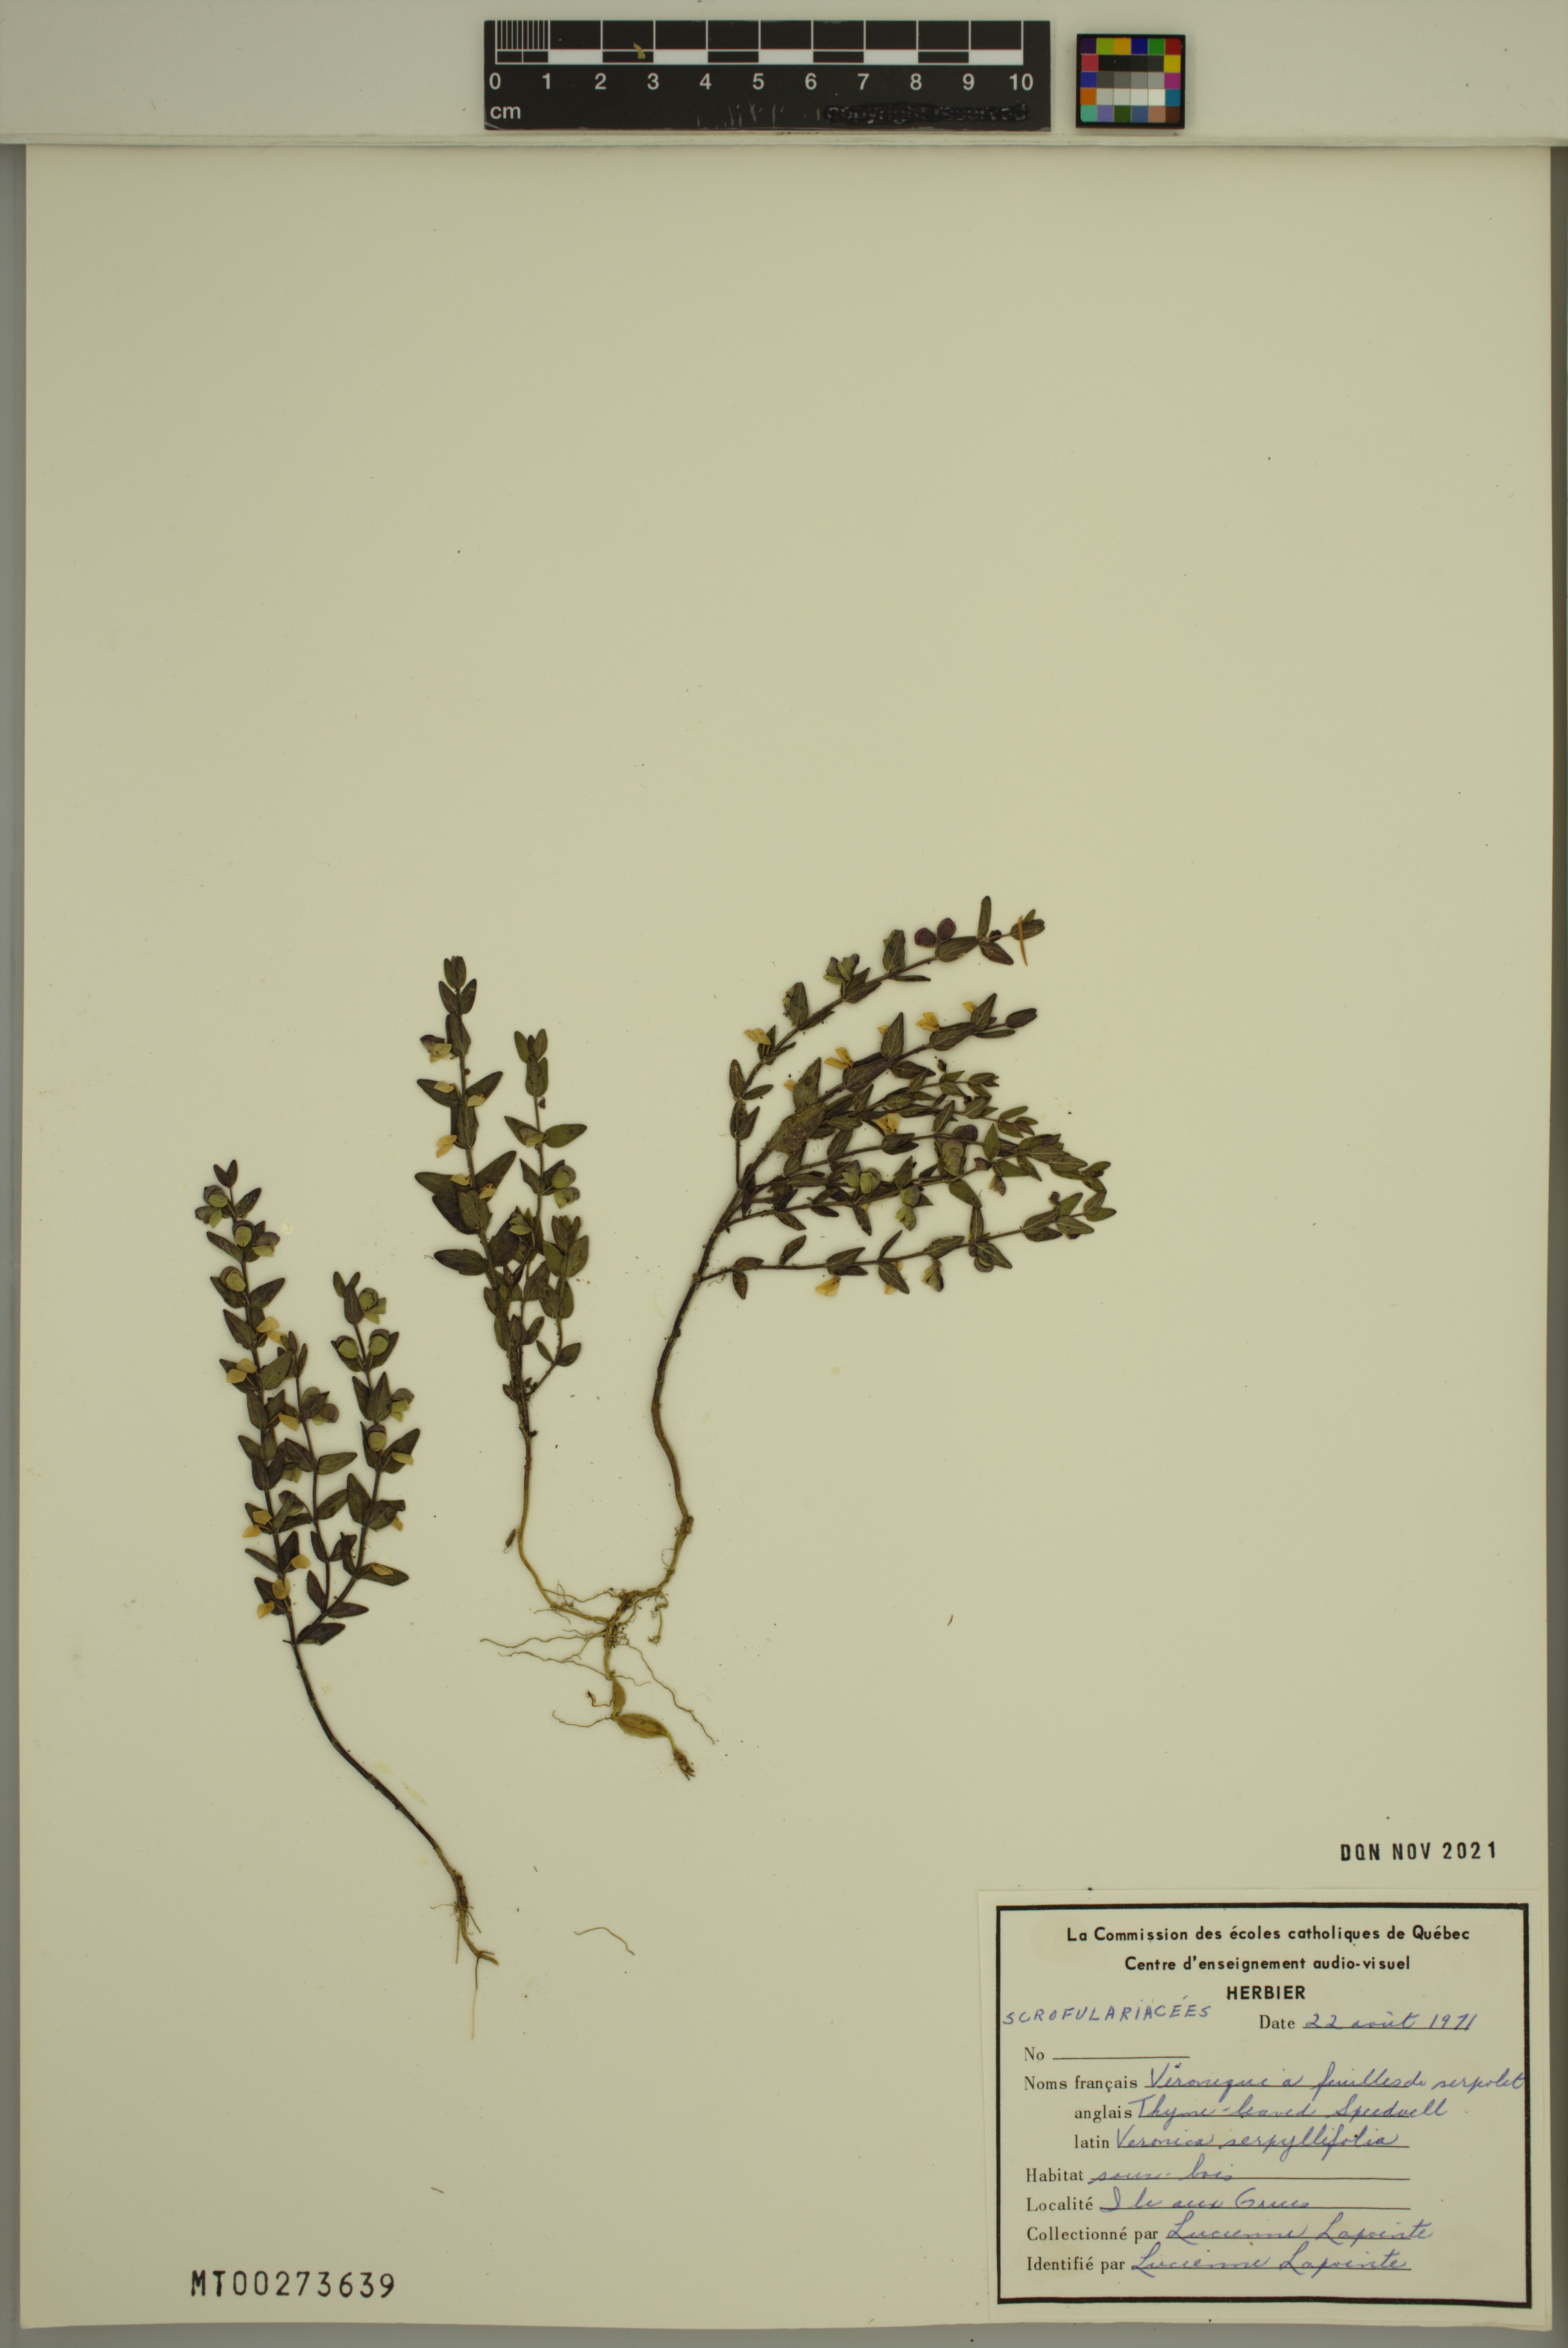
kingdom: Plantae
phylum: Tracheophyta
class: Magnoliopsida
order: Lamiales
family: Plantaginaceae
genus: Veronica
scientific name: Veronica serpyllifolia
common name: Thyme-leaved speedwell
